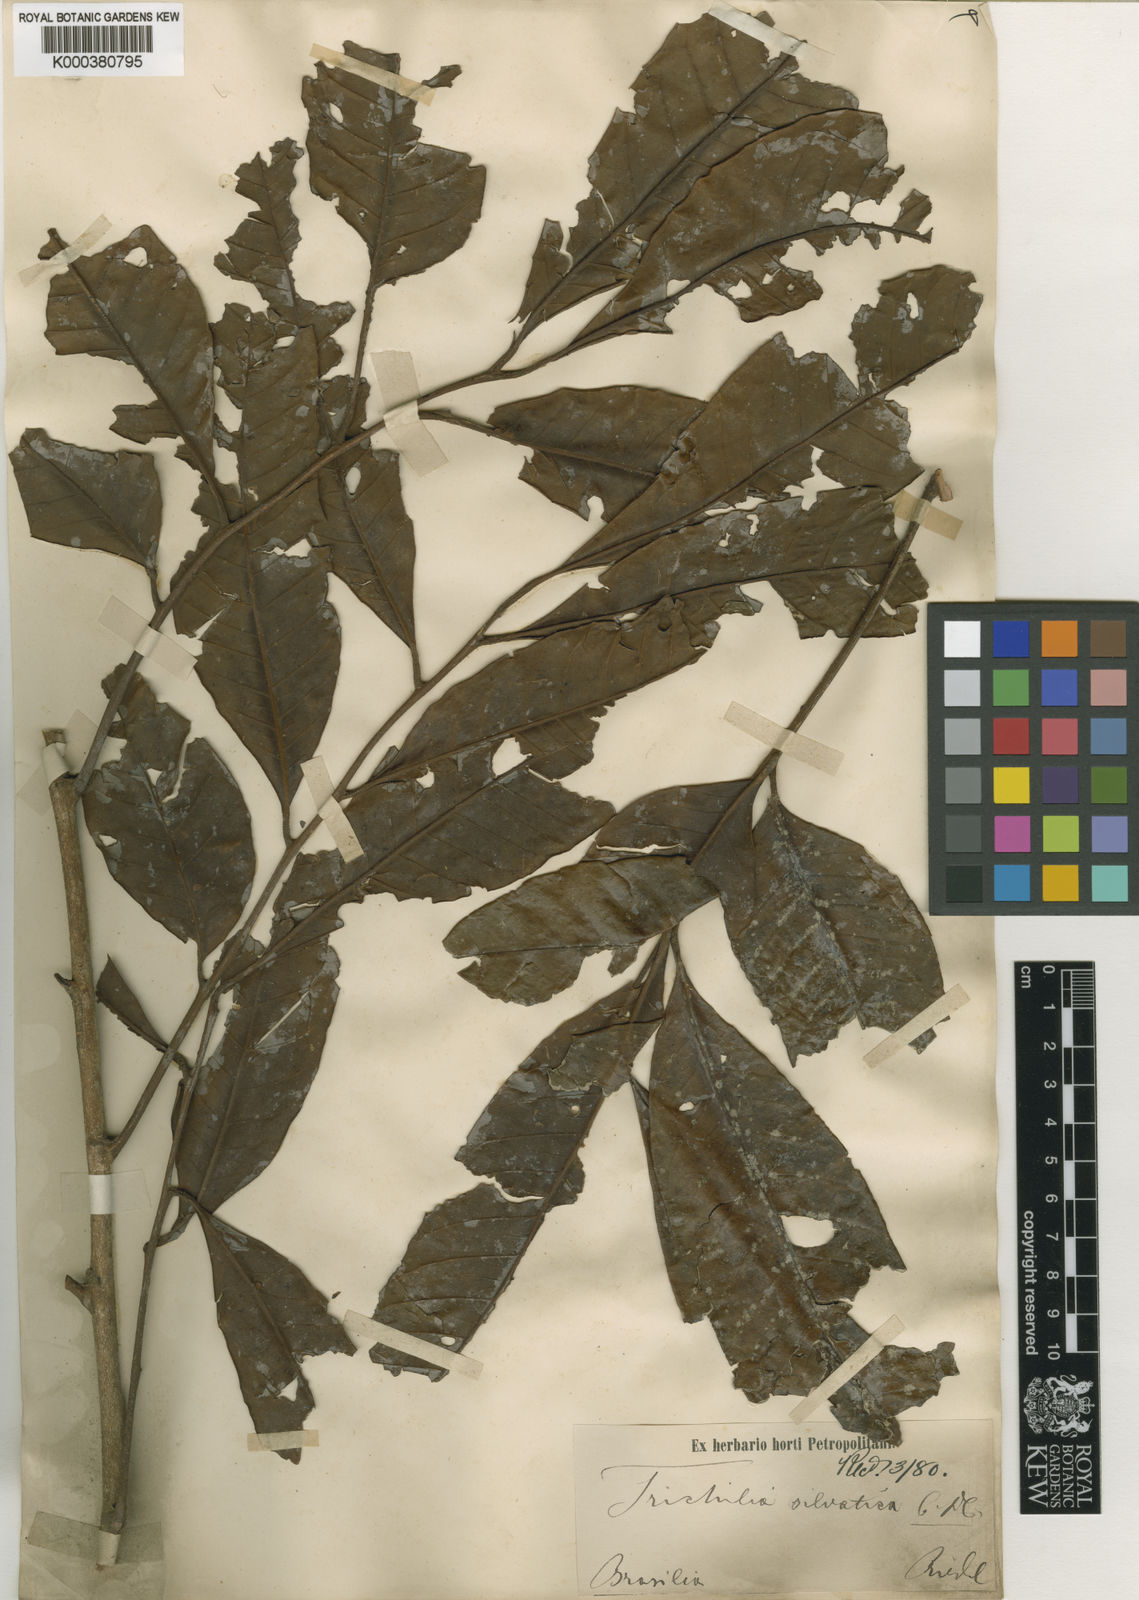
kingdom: Plantae
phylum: Tracheophyta
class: Magnoliopsida
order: Sapindales
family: Meliaceae
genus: Trichilia
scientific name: Trichilia silvatica
